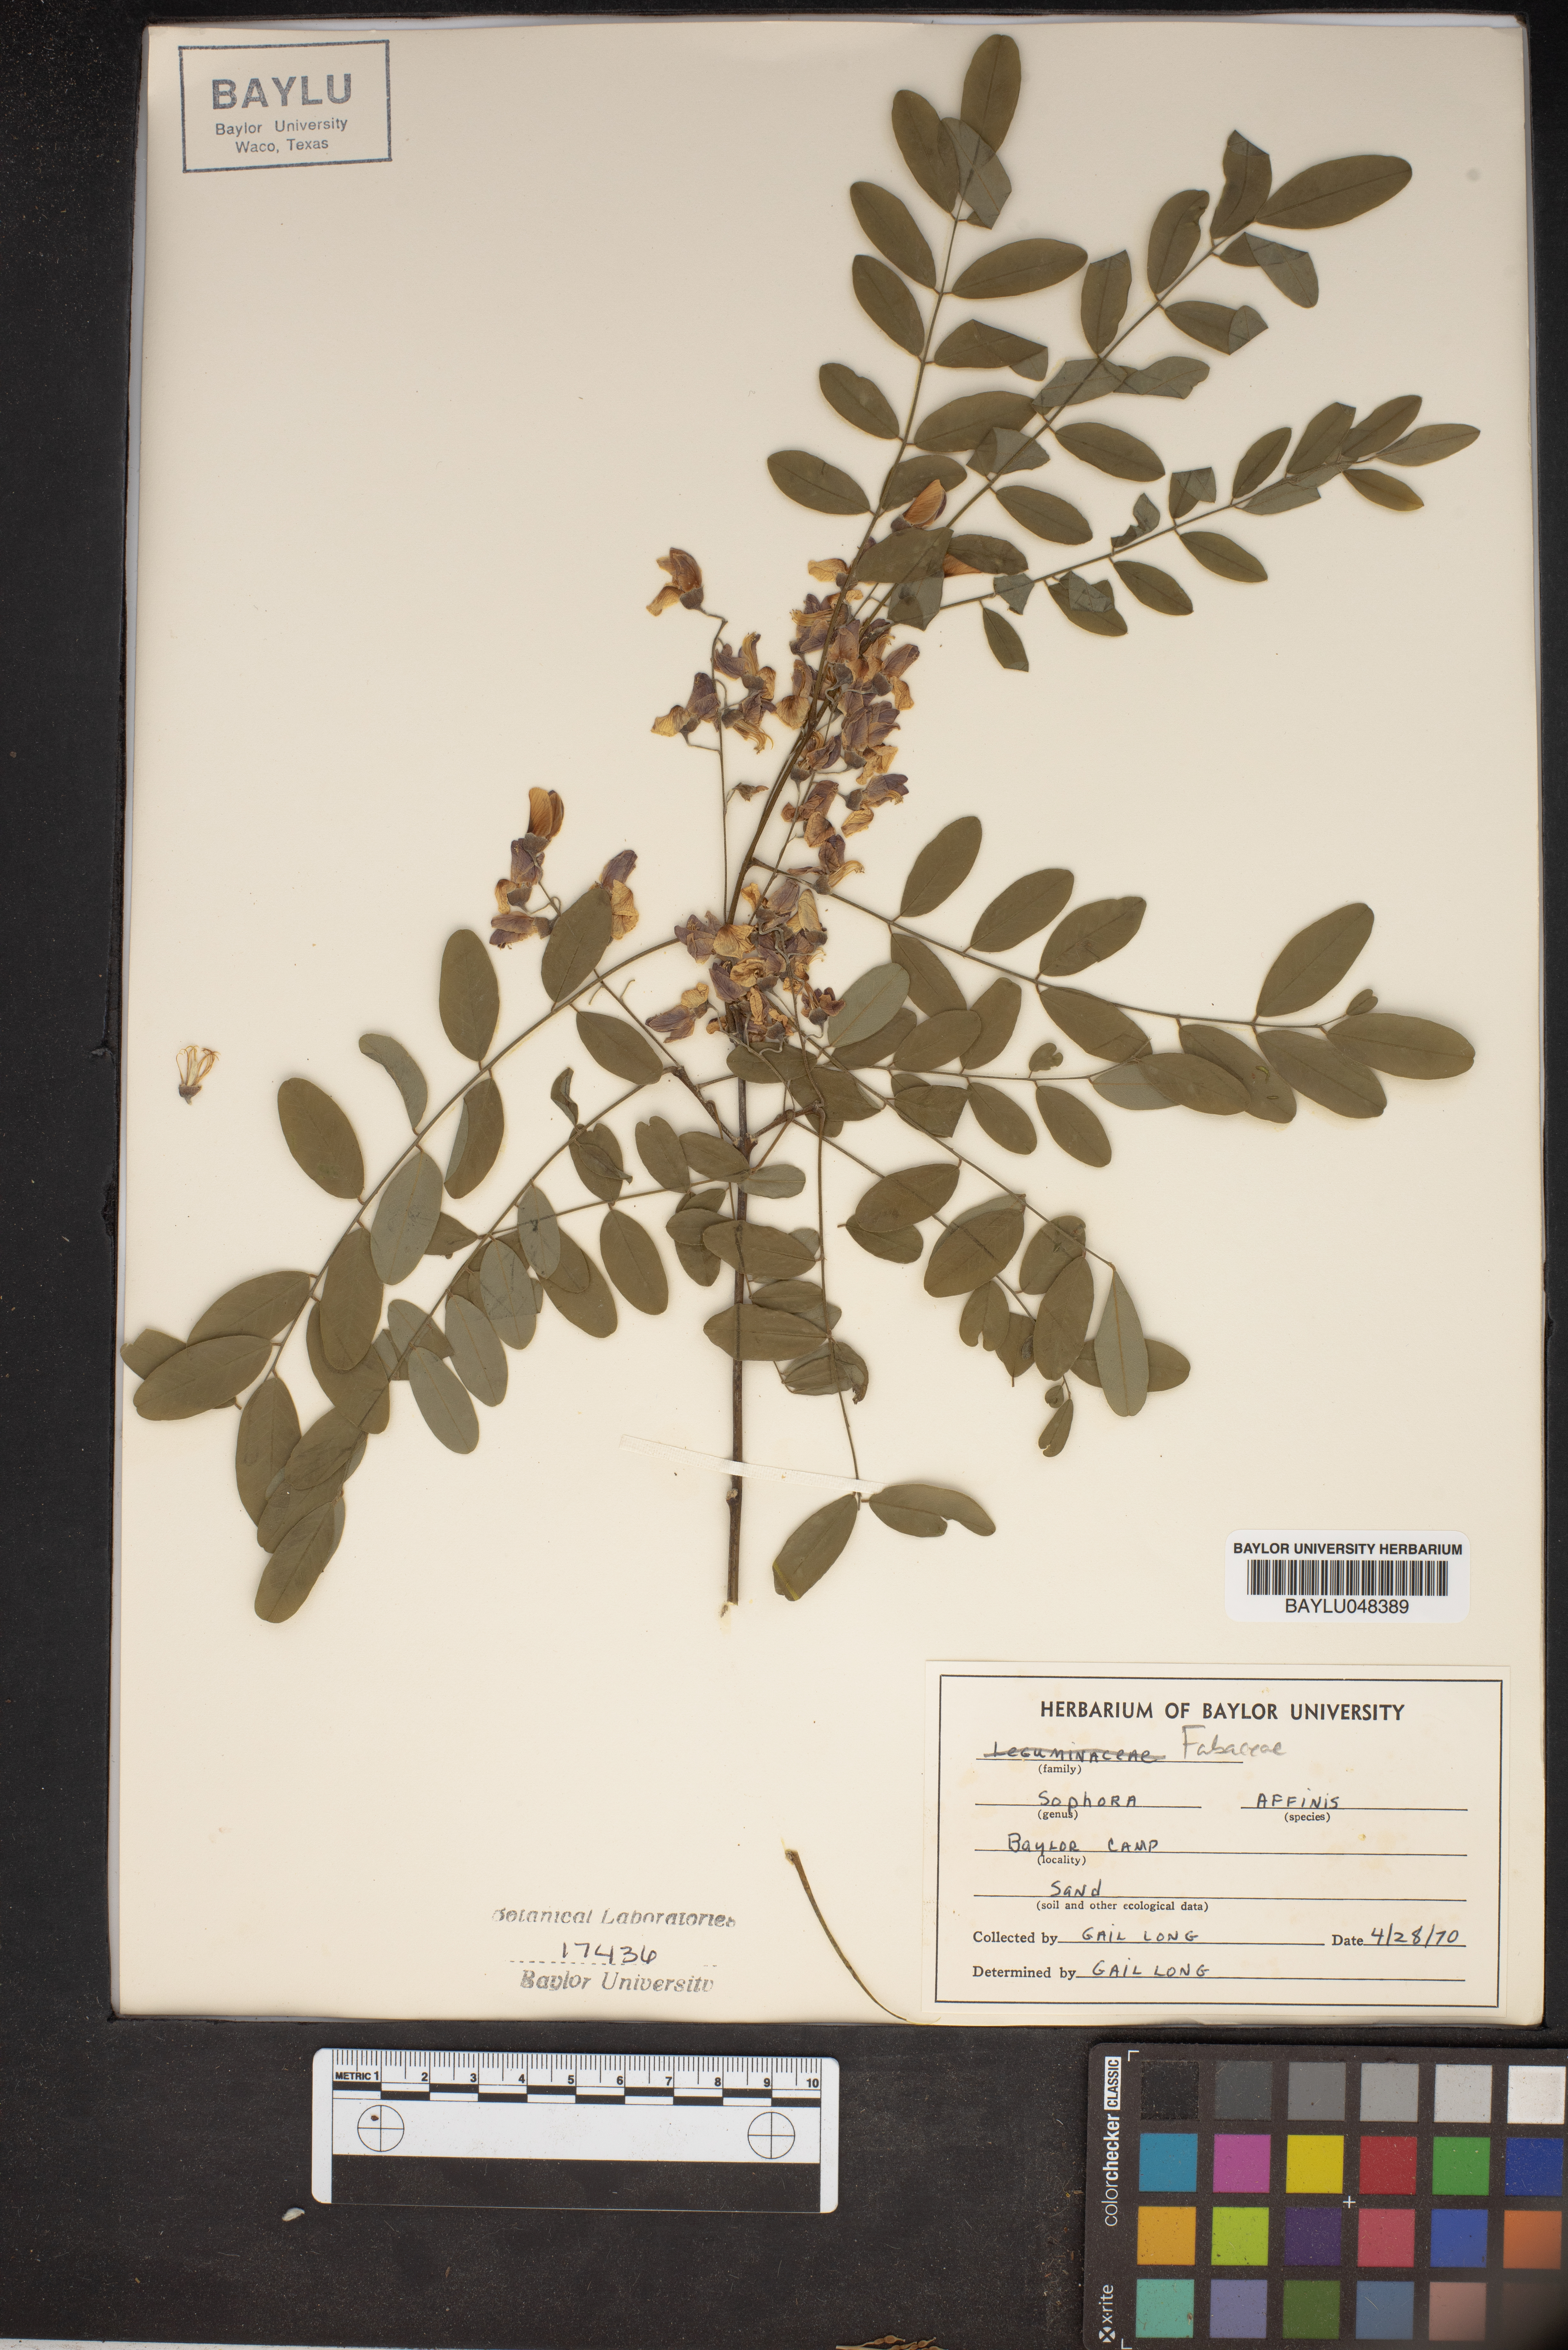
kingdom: Plantae
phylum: Tracheophyta
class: Magnoliopsida
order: Fabales
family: Fabaceae
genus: Styphnolobium
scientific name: Styphnolobium affine
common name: Texas sophora
